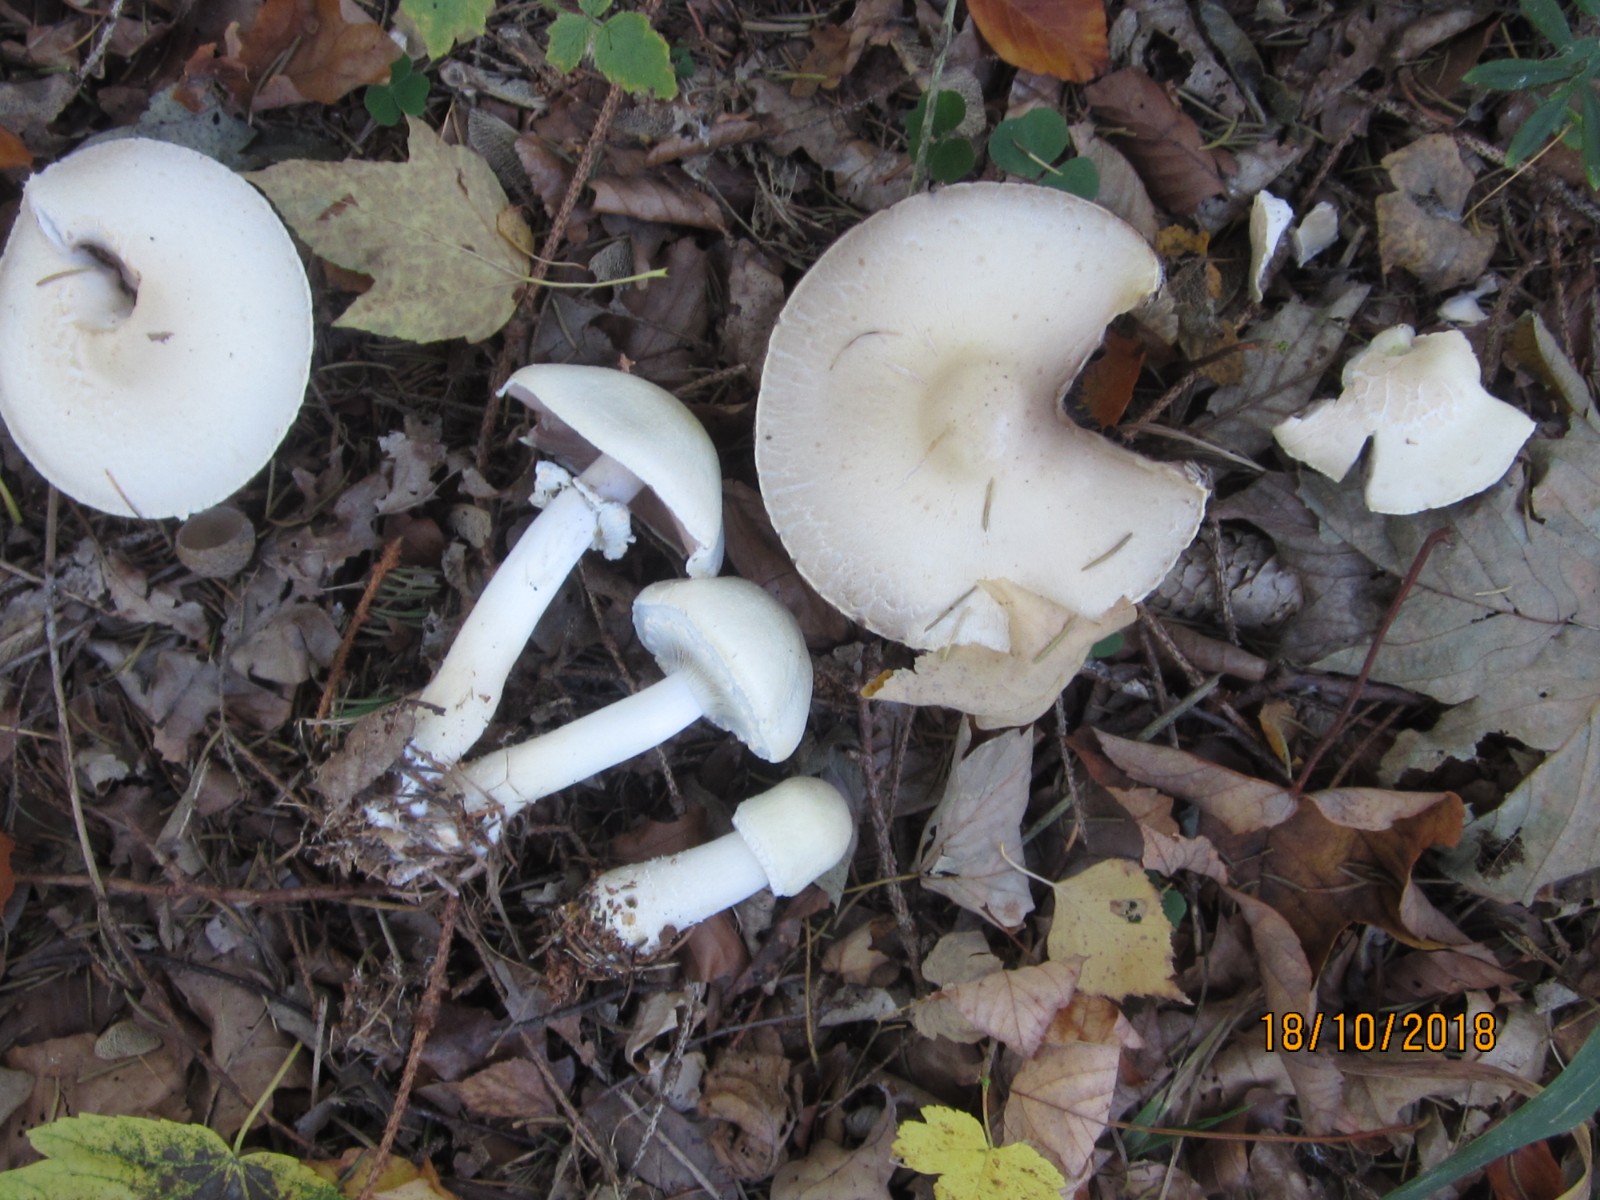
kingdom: Fungi
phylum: Basidiomycota
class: Agaricomycetes
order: Agaricales
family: Agaricaceae
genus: Agaricus
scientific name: Agaricus sylvicola
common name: gulhvid champignon
